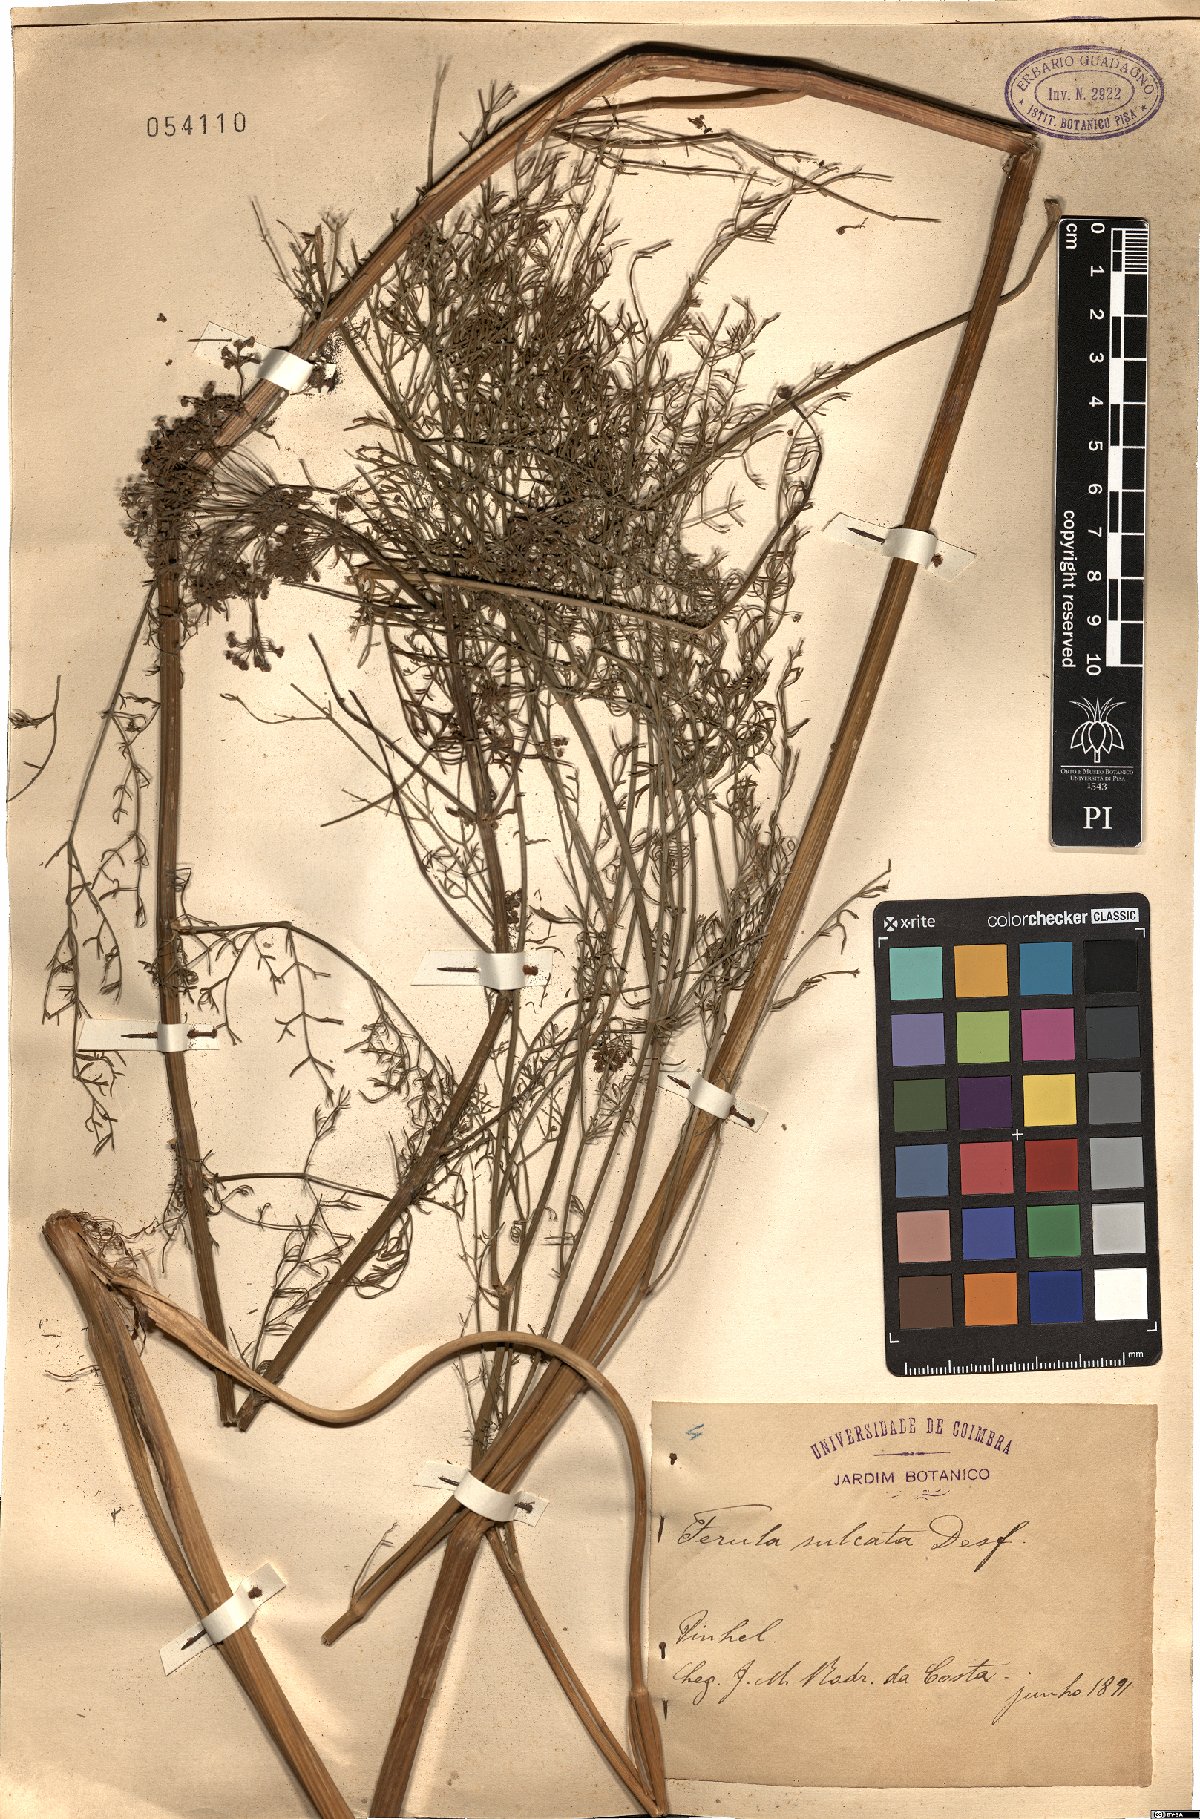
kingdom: Plantae
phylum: Tracheophyta
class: Magnoliopsida
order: Apiales
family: Apiaceae
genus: Ferulago
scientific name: Ferulago lutea
